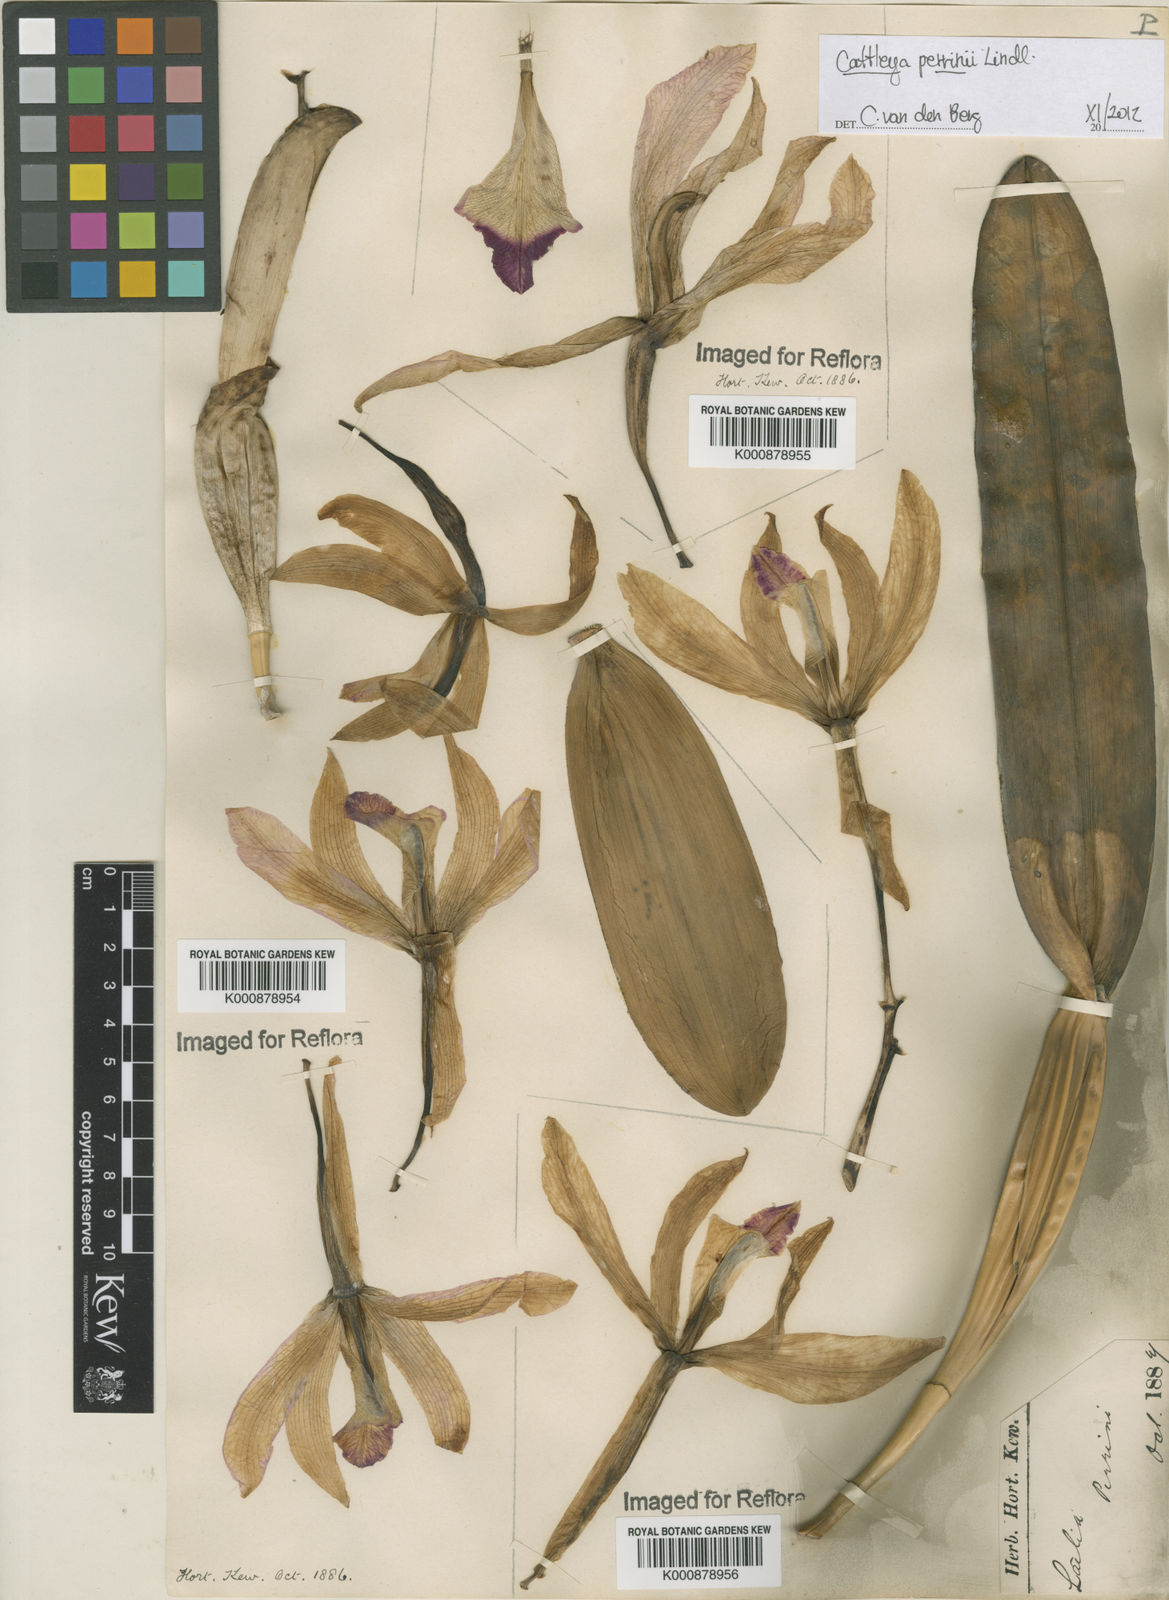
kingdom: Plantae
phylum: Tracheophyta
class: Liliopsida
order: Asparagales
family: Orchidaceae
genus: Cattleya
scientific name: Cattleya perrinii
